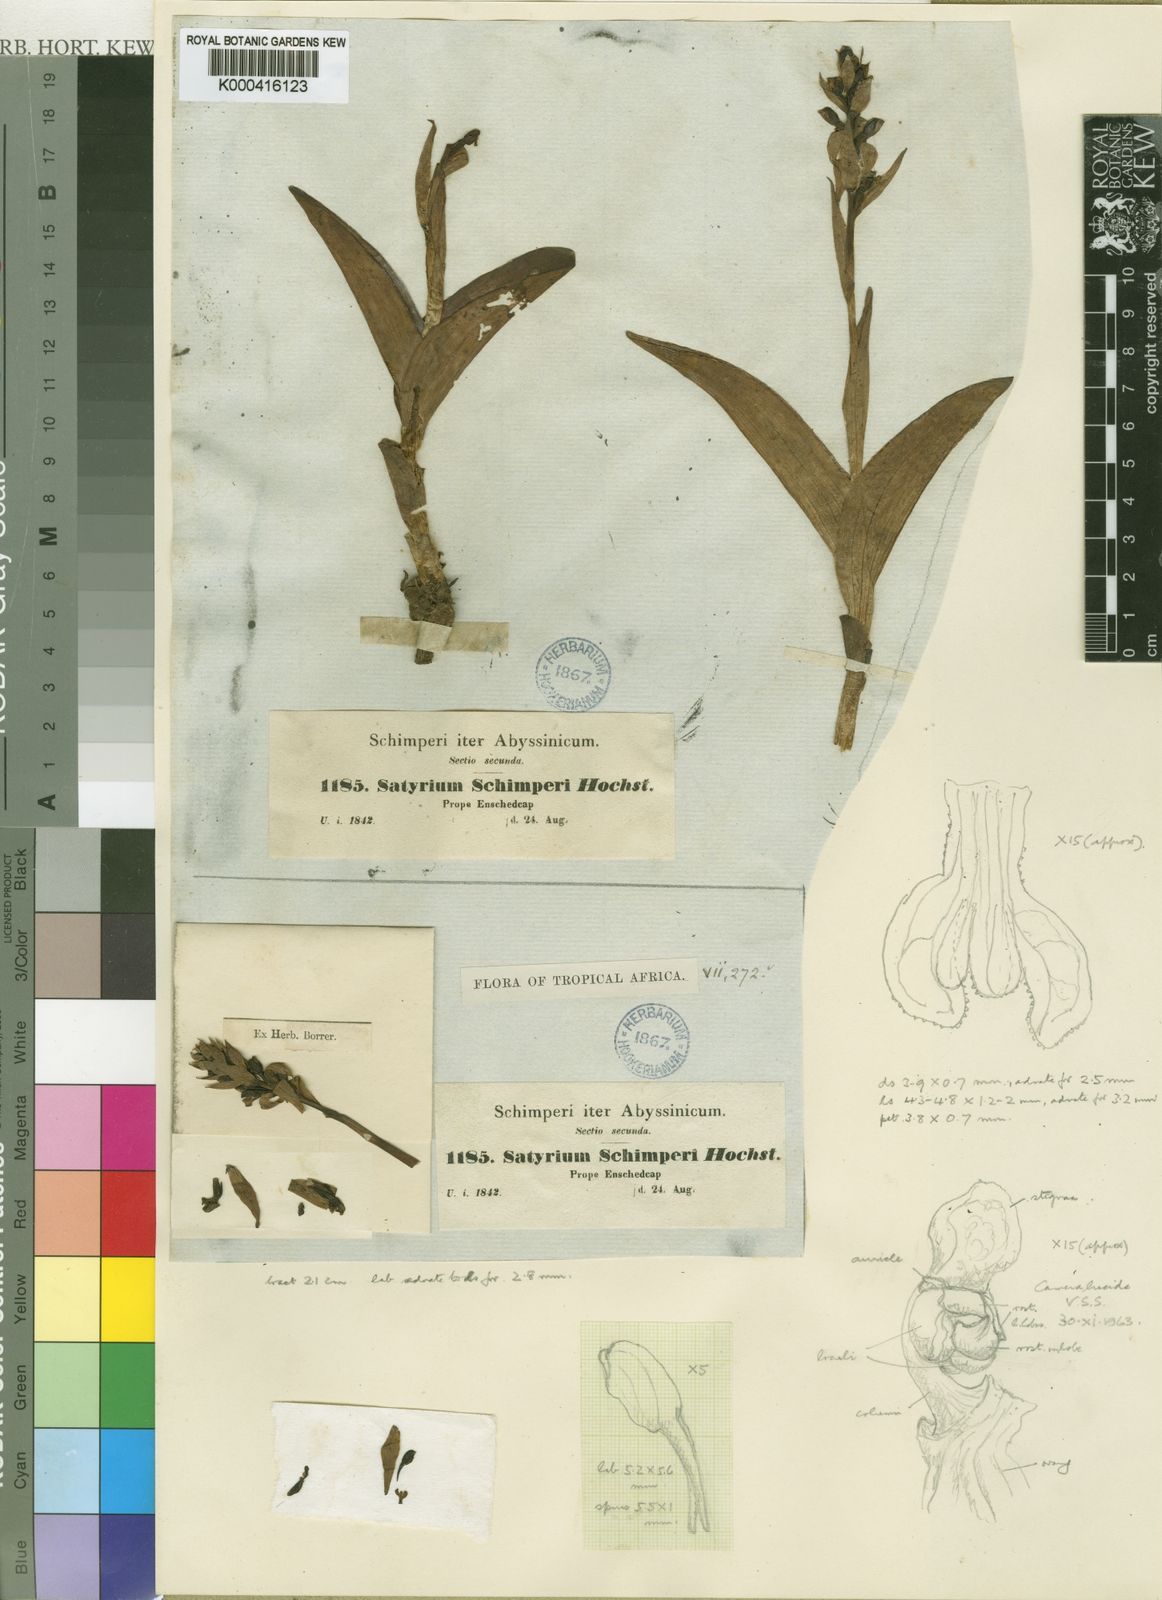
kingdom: Plantae
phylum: Tracheophyta
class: Liliopsida
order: Asparagales
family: Orchidaceae
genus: Satyrium
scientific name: Satyrium schimperi
